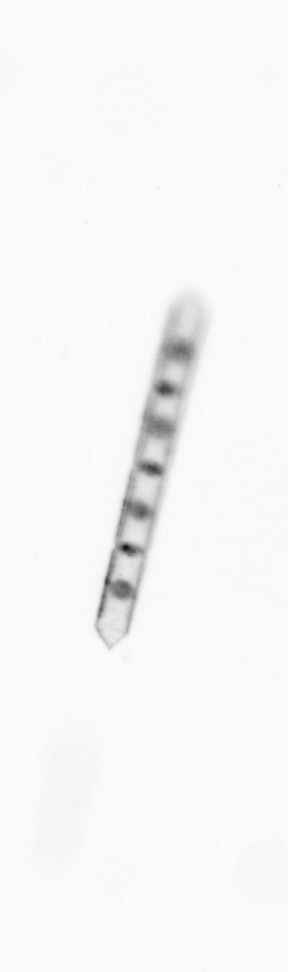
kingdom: Chromista
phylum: Ochrophyta
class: Bacillariophyceae
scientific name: Bacillariophyceae
